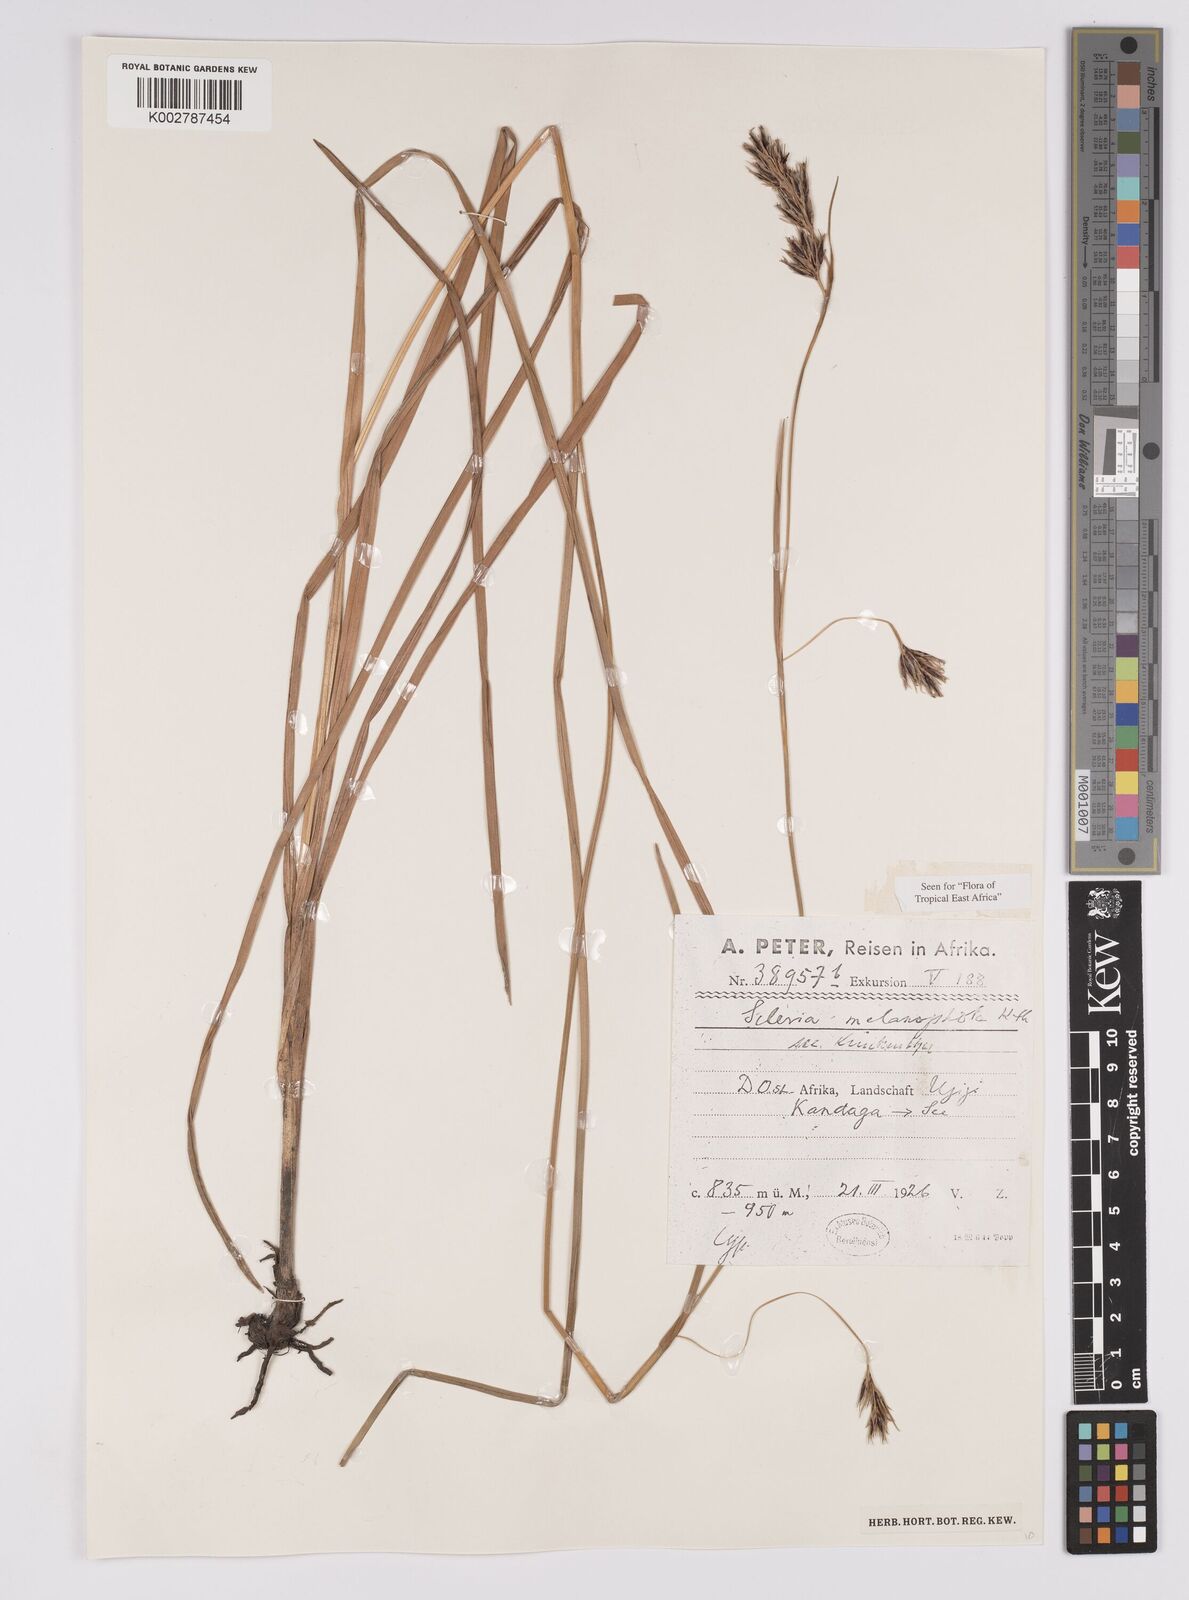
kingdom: Plantae
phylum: Tracheophyta
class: Liliopsida
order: Poales
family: Cyperaceae
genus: Scleria
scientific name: Scleria melanomphala
